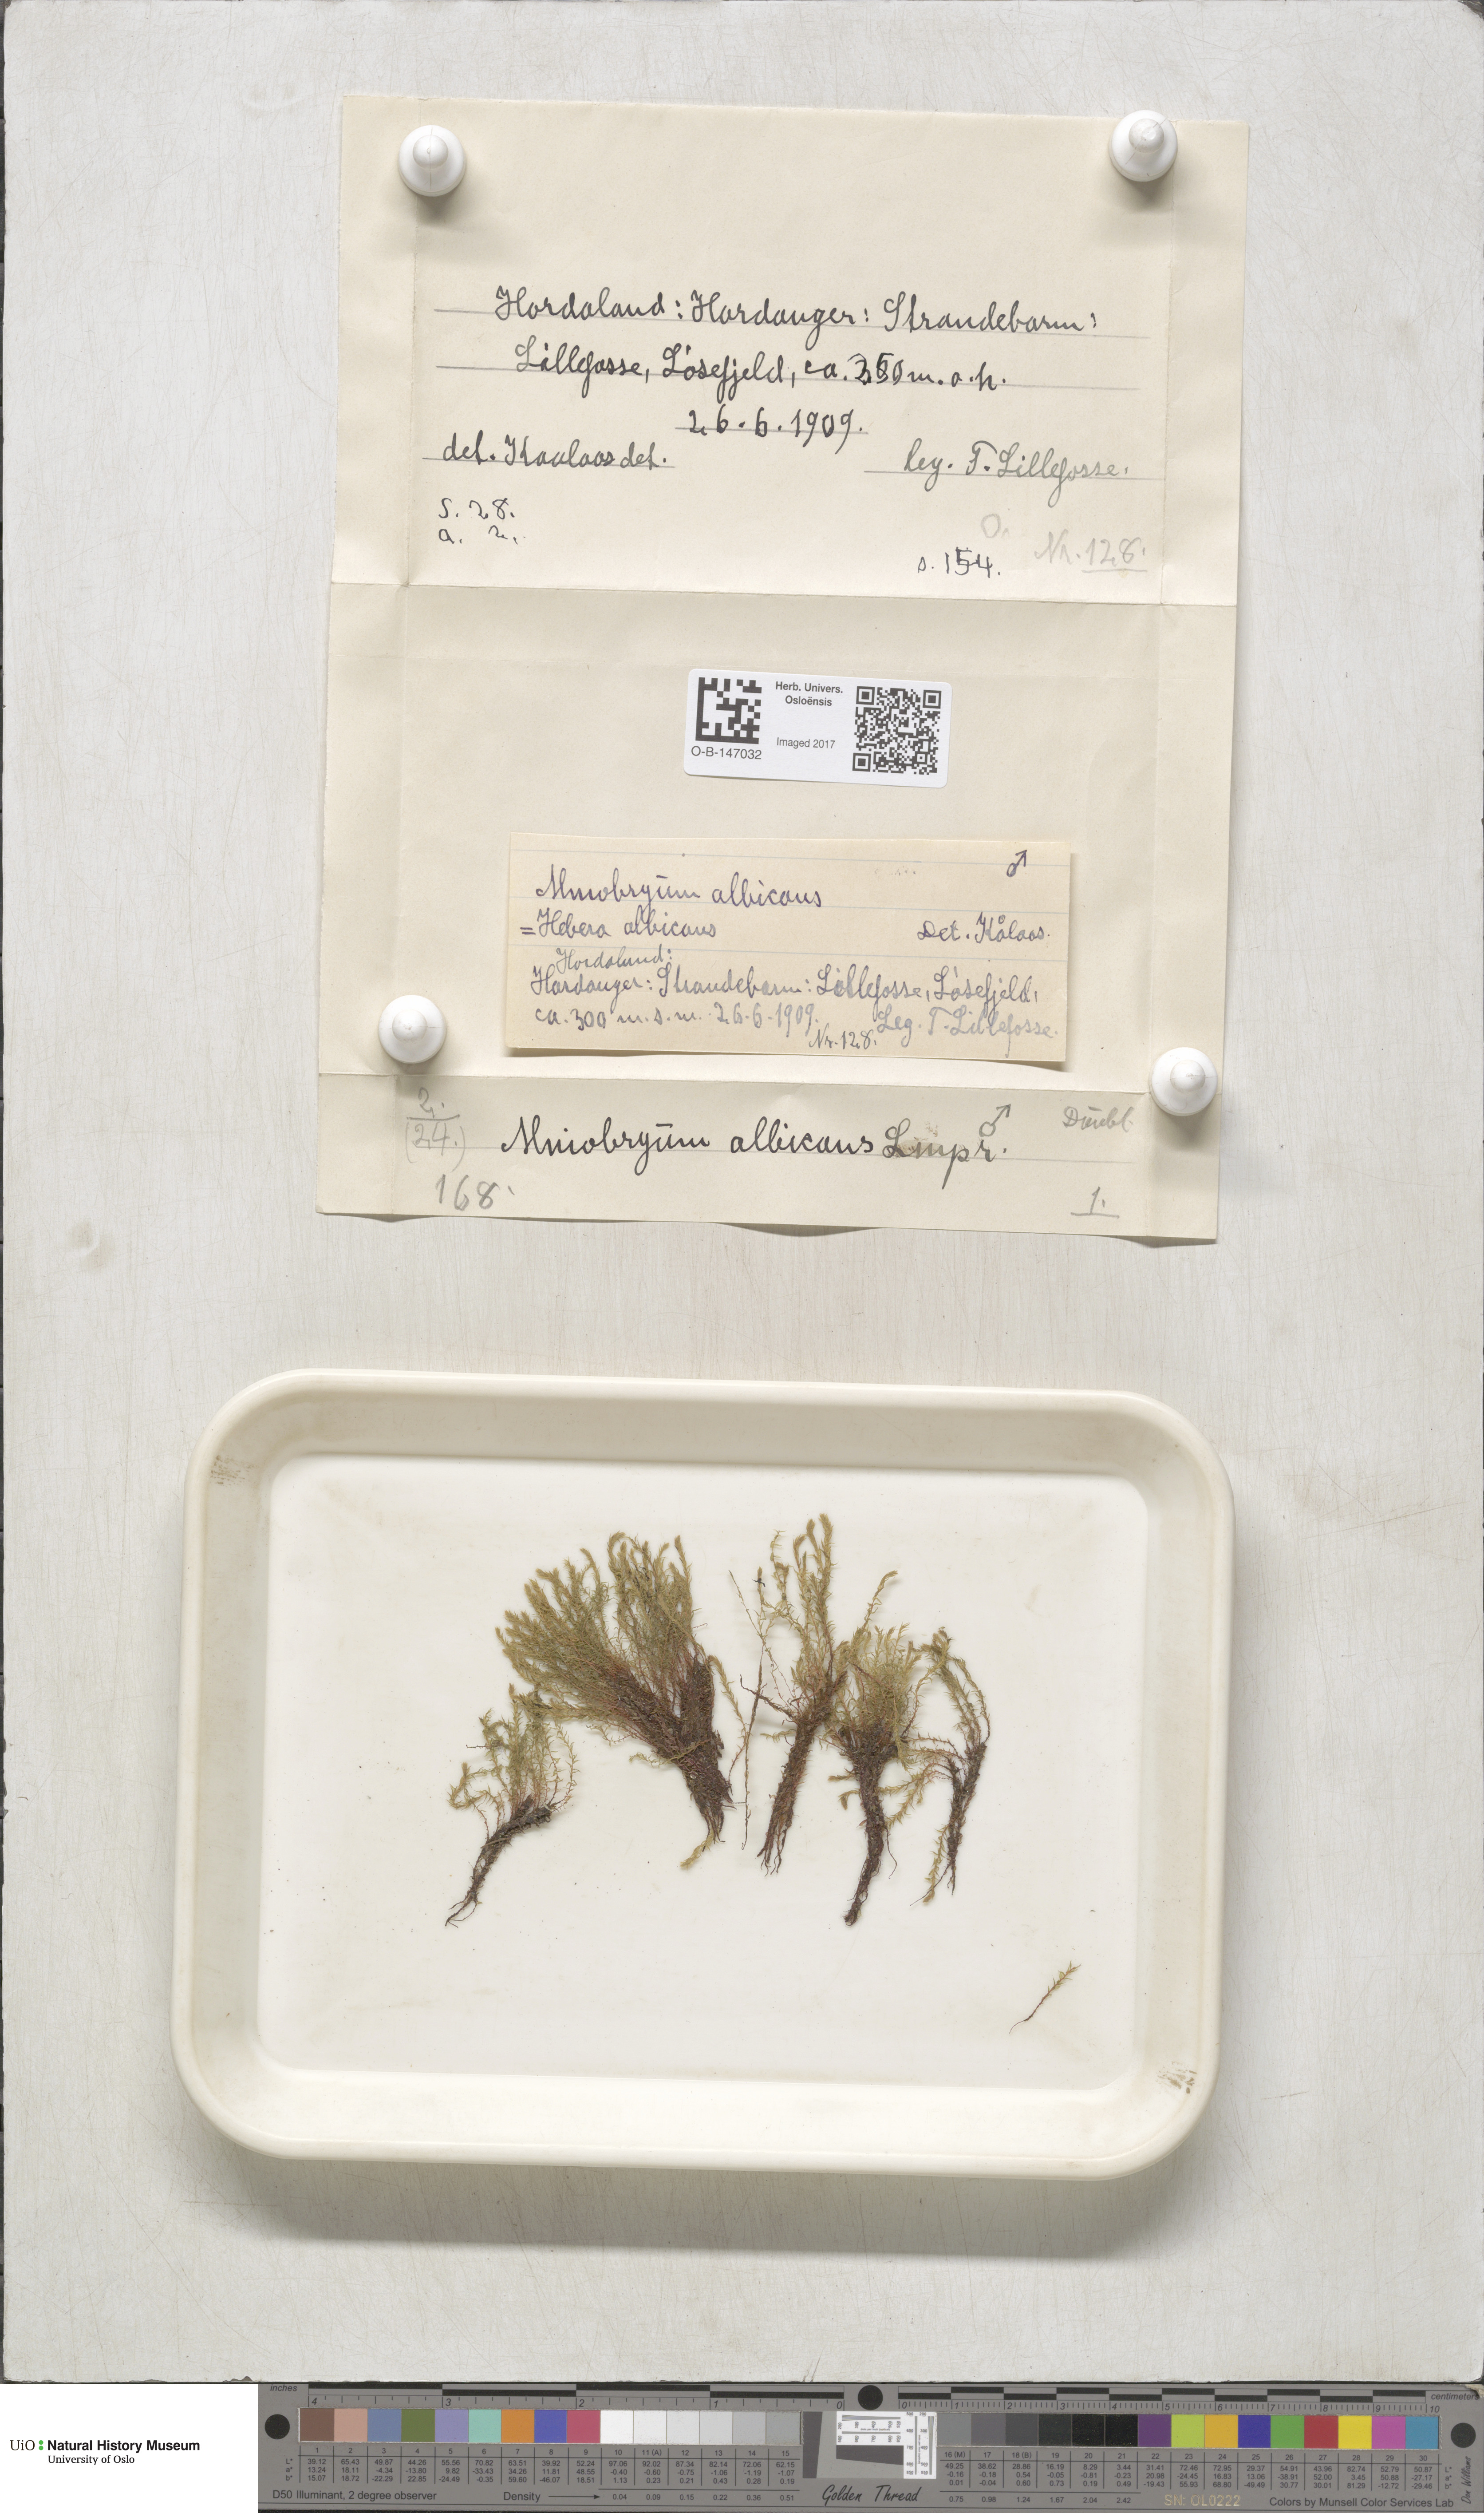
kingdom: Plantae
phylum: Bryophyta
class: Bryopsida
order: Bryales
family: Mniaceae
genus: Pohlia
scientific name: Pohlia wahlenbergii
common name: Wahlenberg's nodding moss
